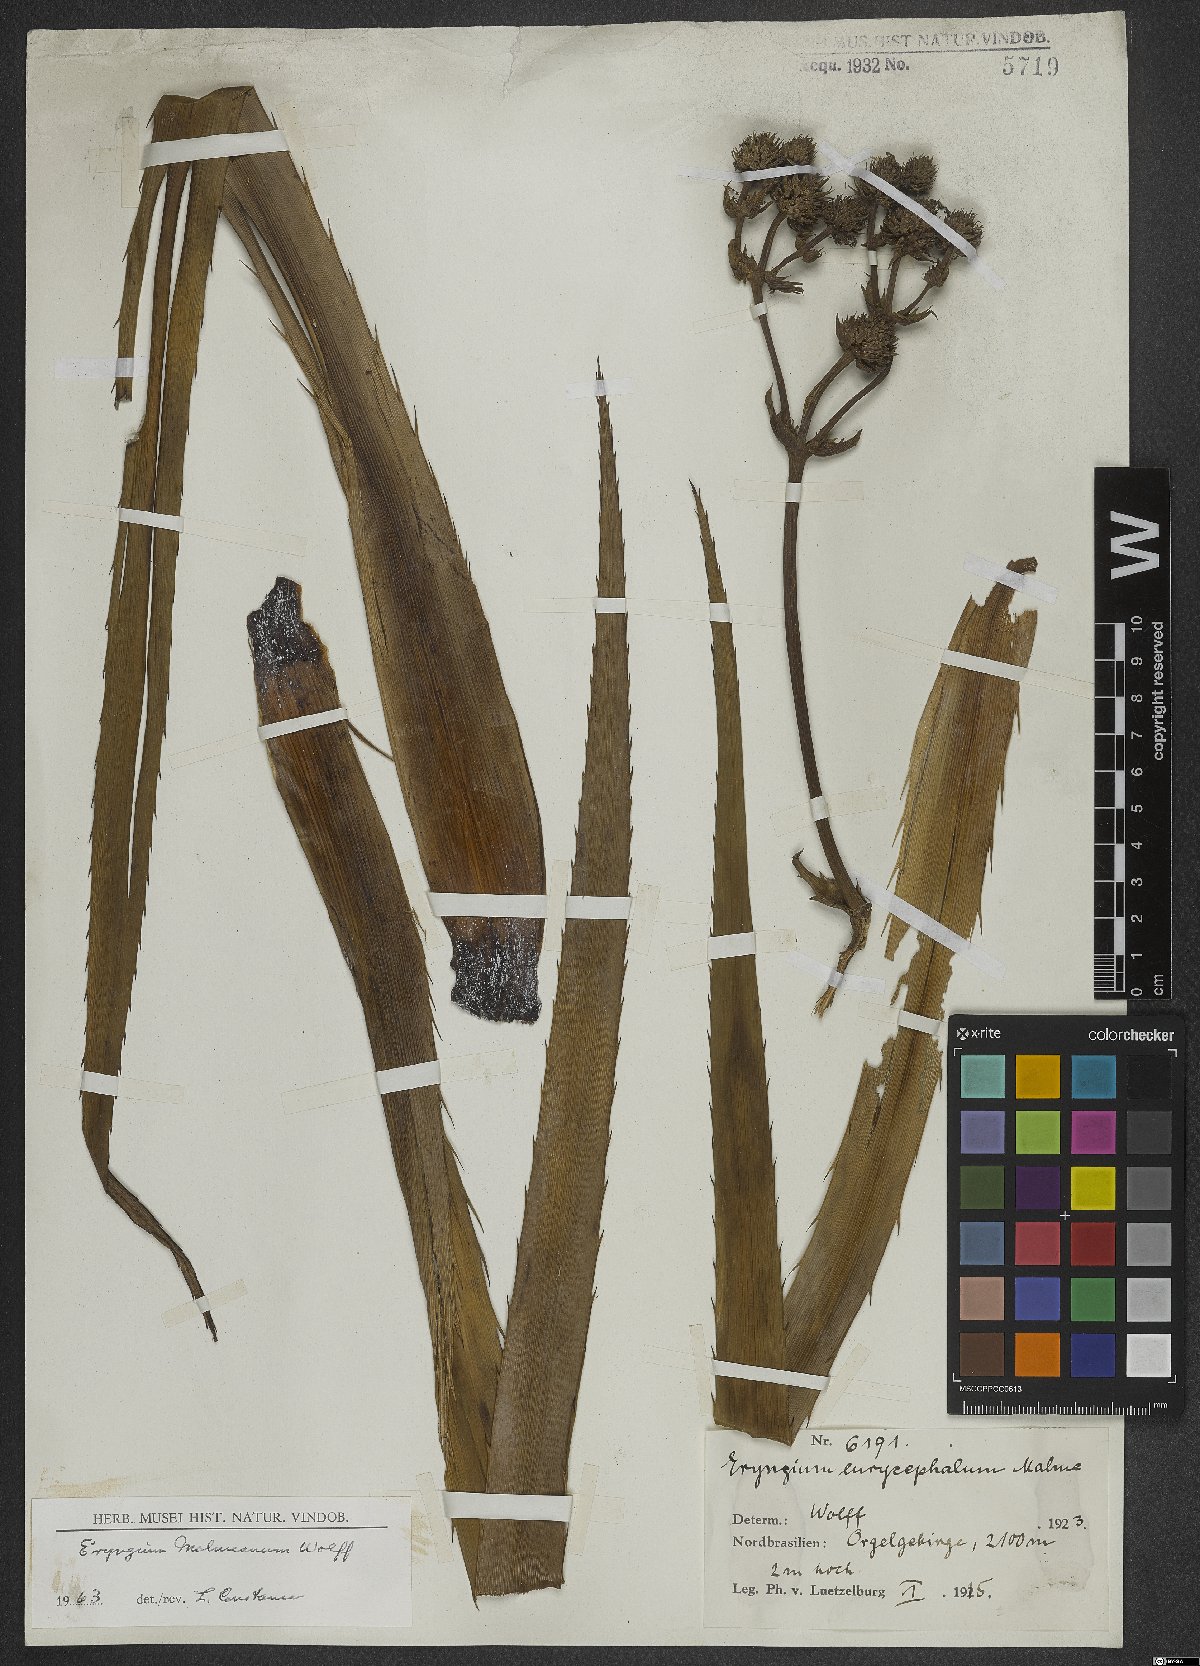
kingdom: Plantae
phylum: Tracheophyta
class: Magnoliopsida
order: Apiales
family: Apiaceae
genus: Eryngium
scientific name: Eryngium malmeanum
